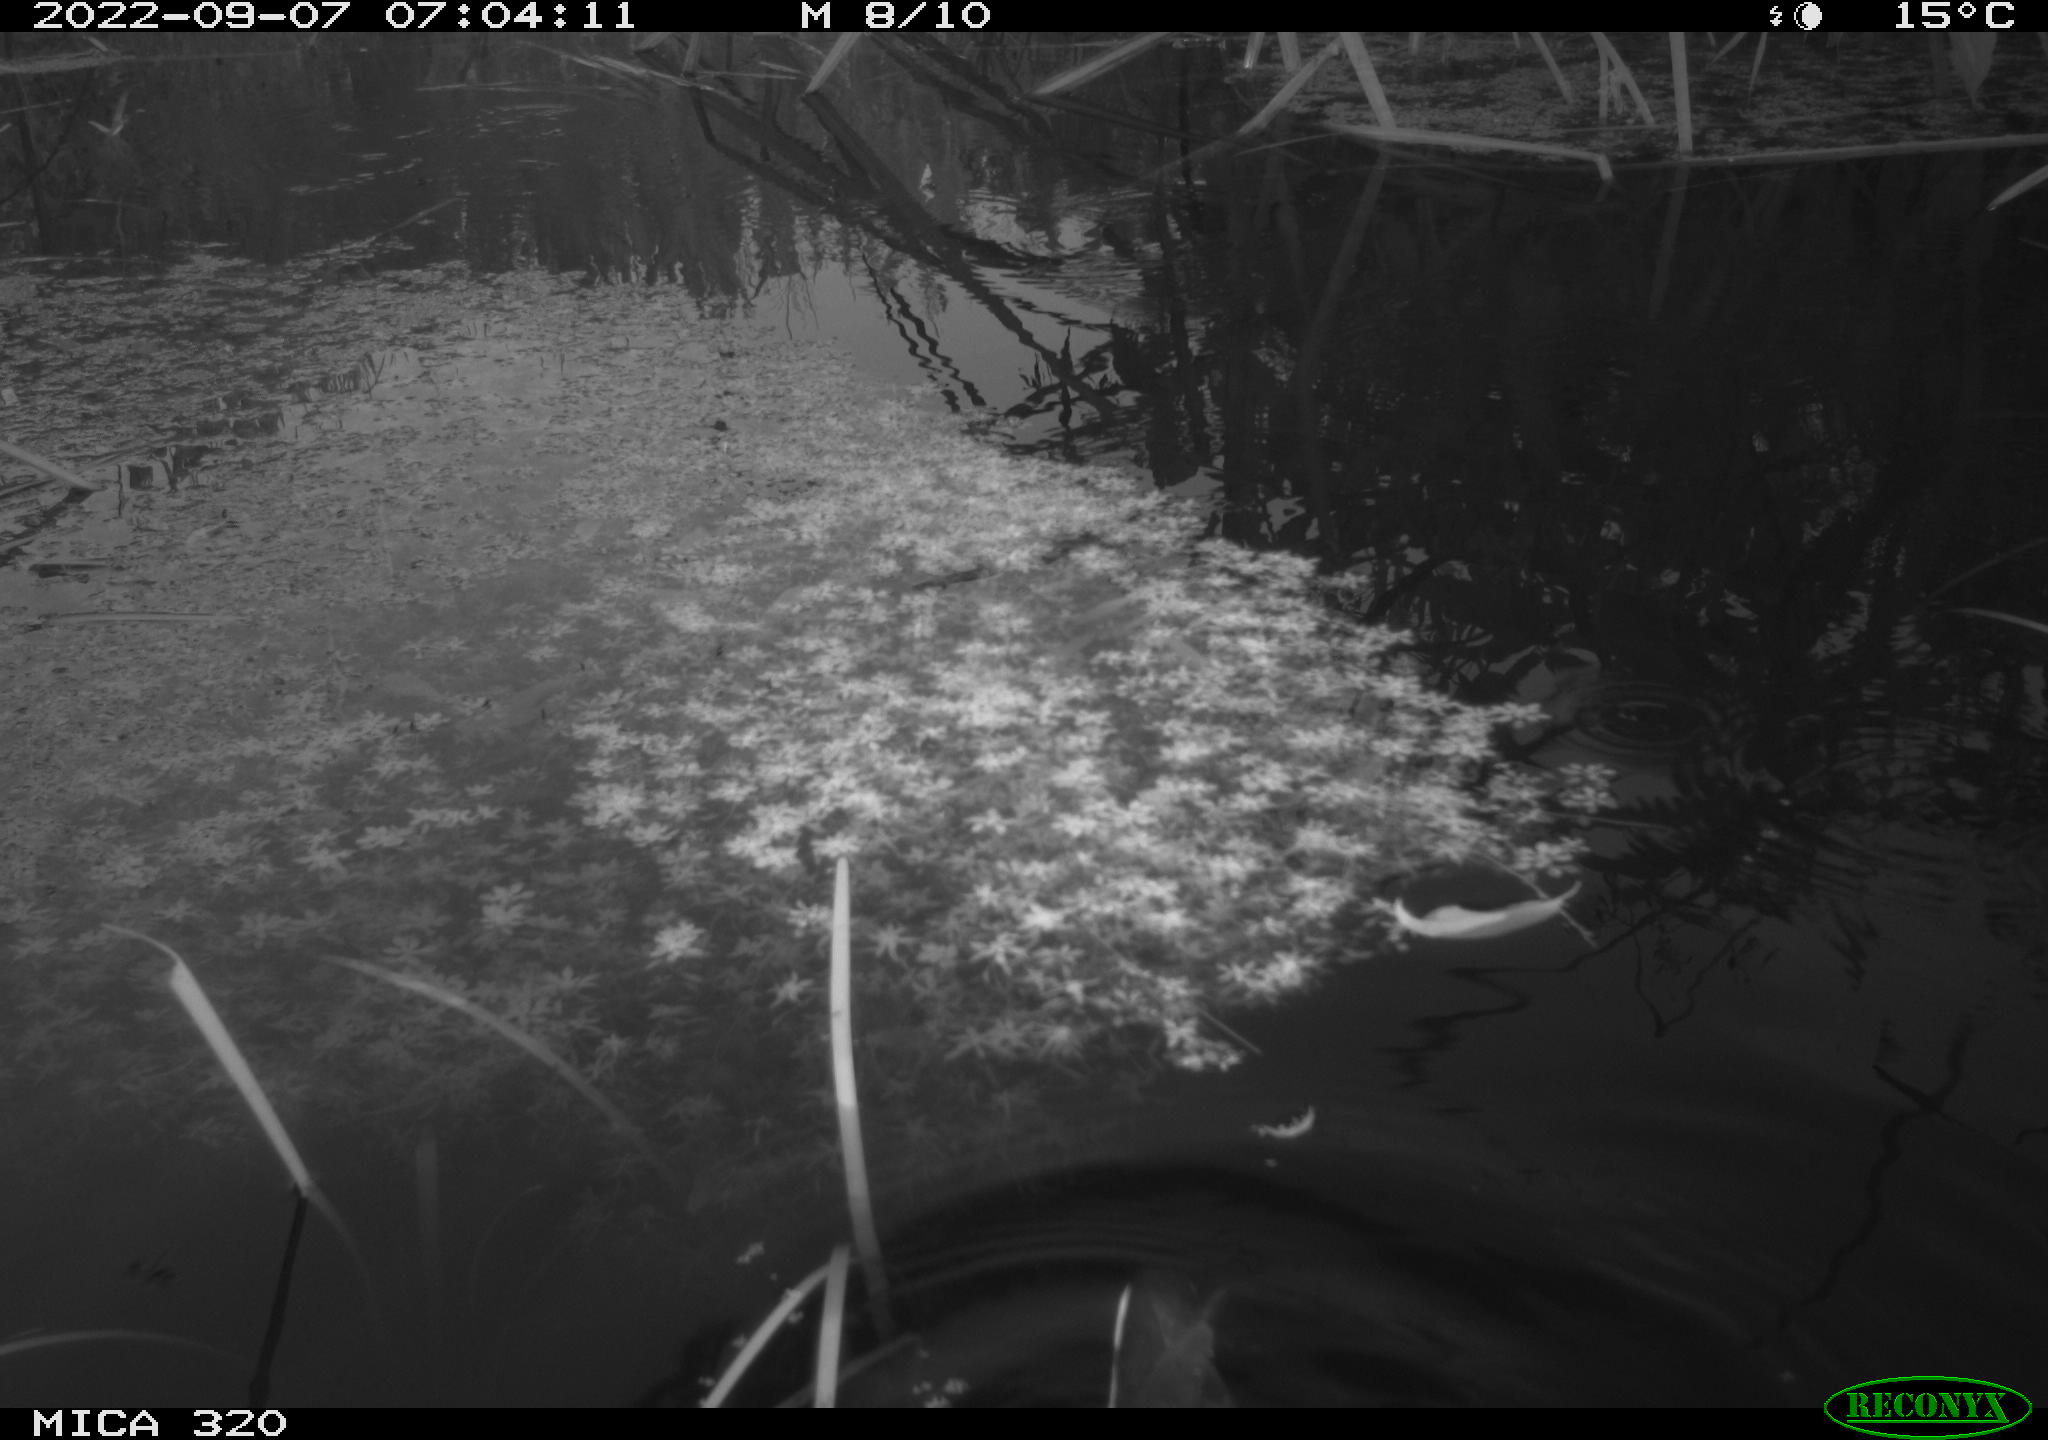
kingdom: Animalia
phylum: Chordata
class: Aves
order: Gruiformes
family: Rallidae
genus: Gallinula
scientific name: Gallinula chloropus
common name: Common moorhen
